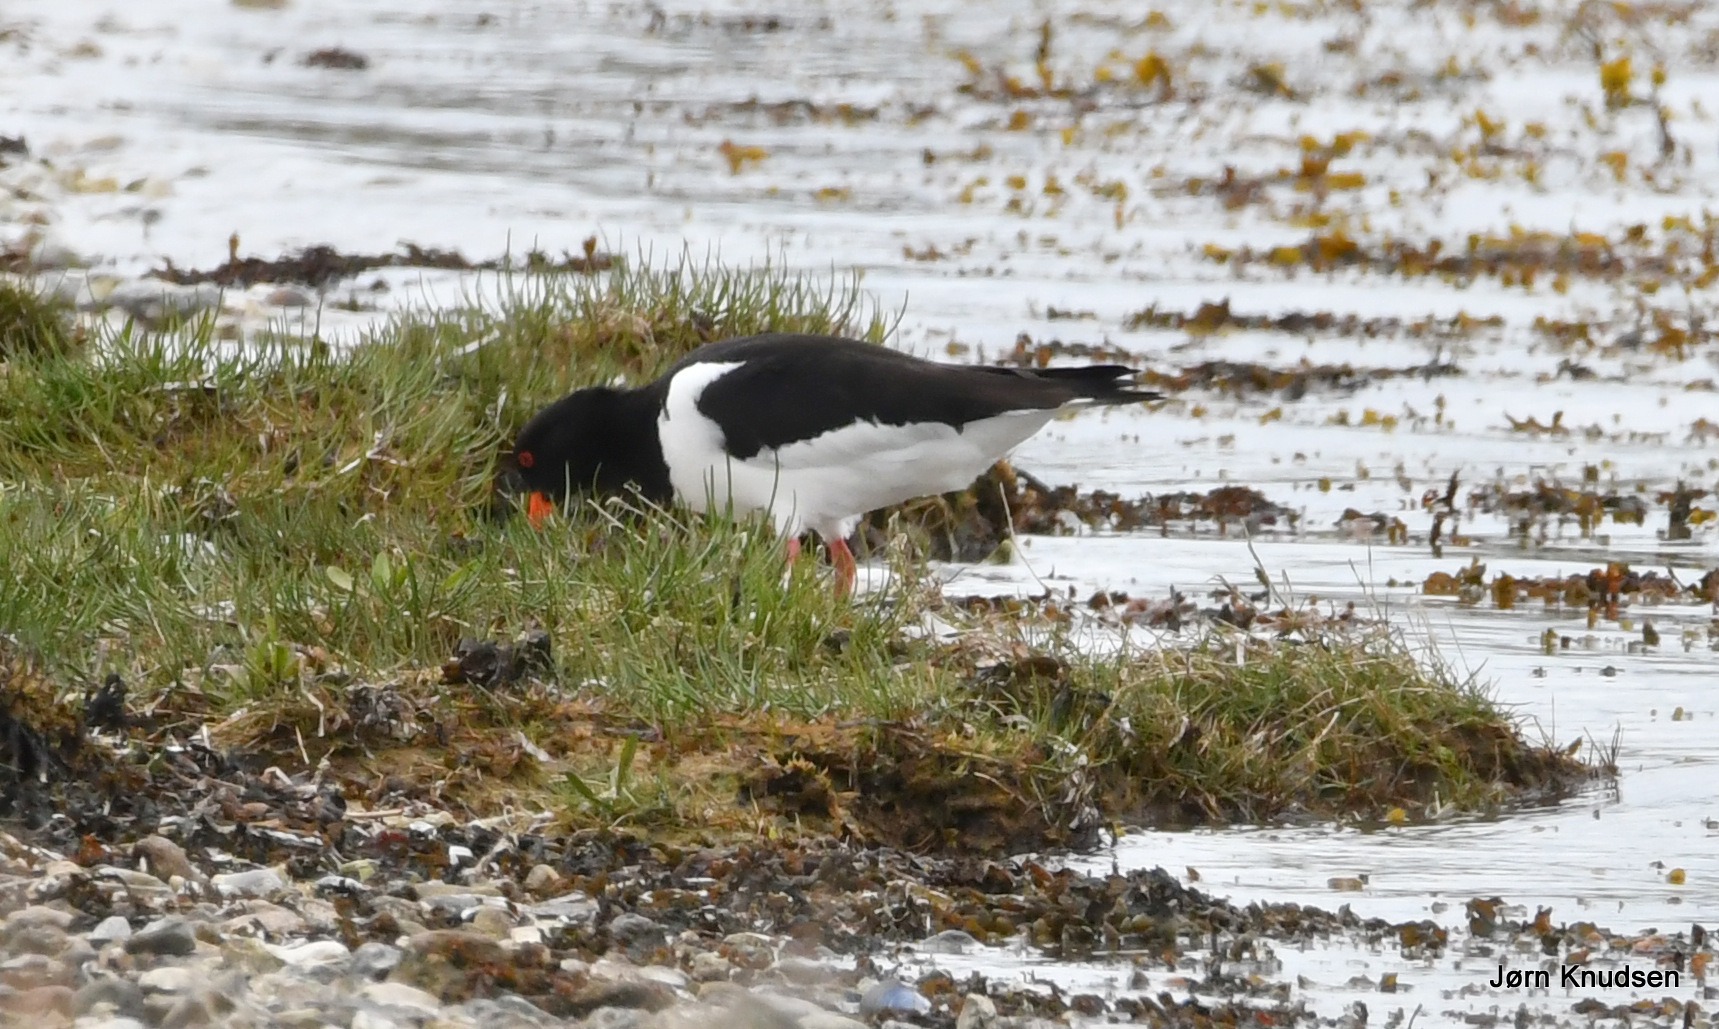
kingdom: Animalia
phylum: Chordata
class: Aves
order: Charadriiformes
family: Haematopodidae
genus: Haematopus
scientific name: Haematopus ostralegus
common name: Strandskade
